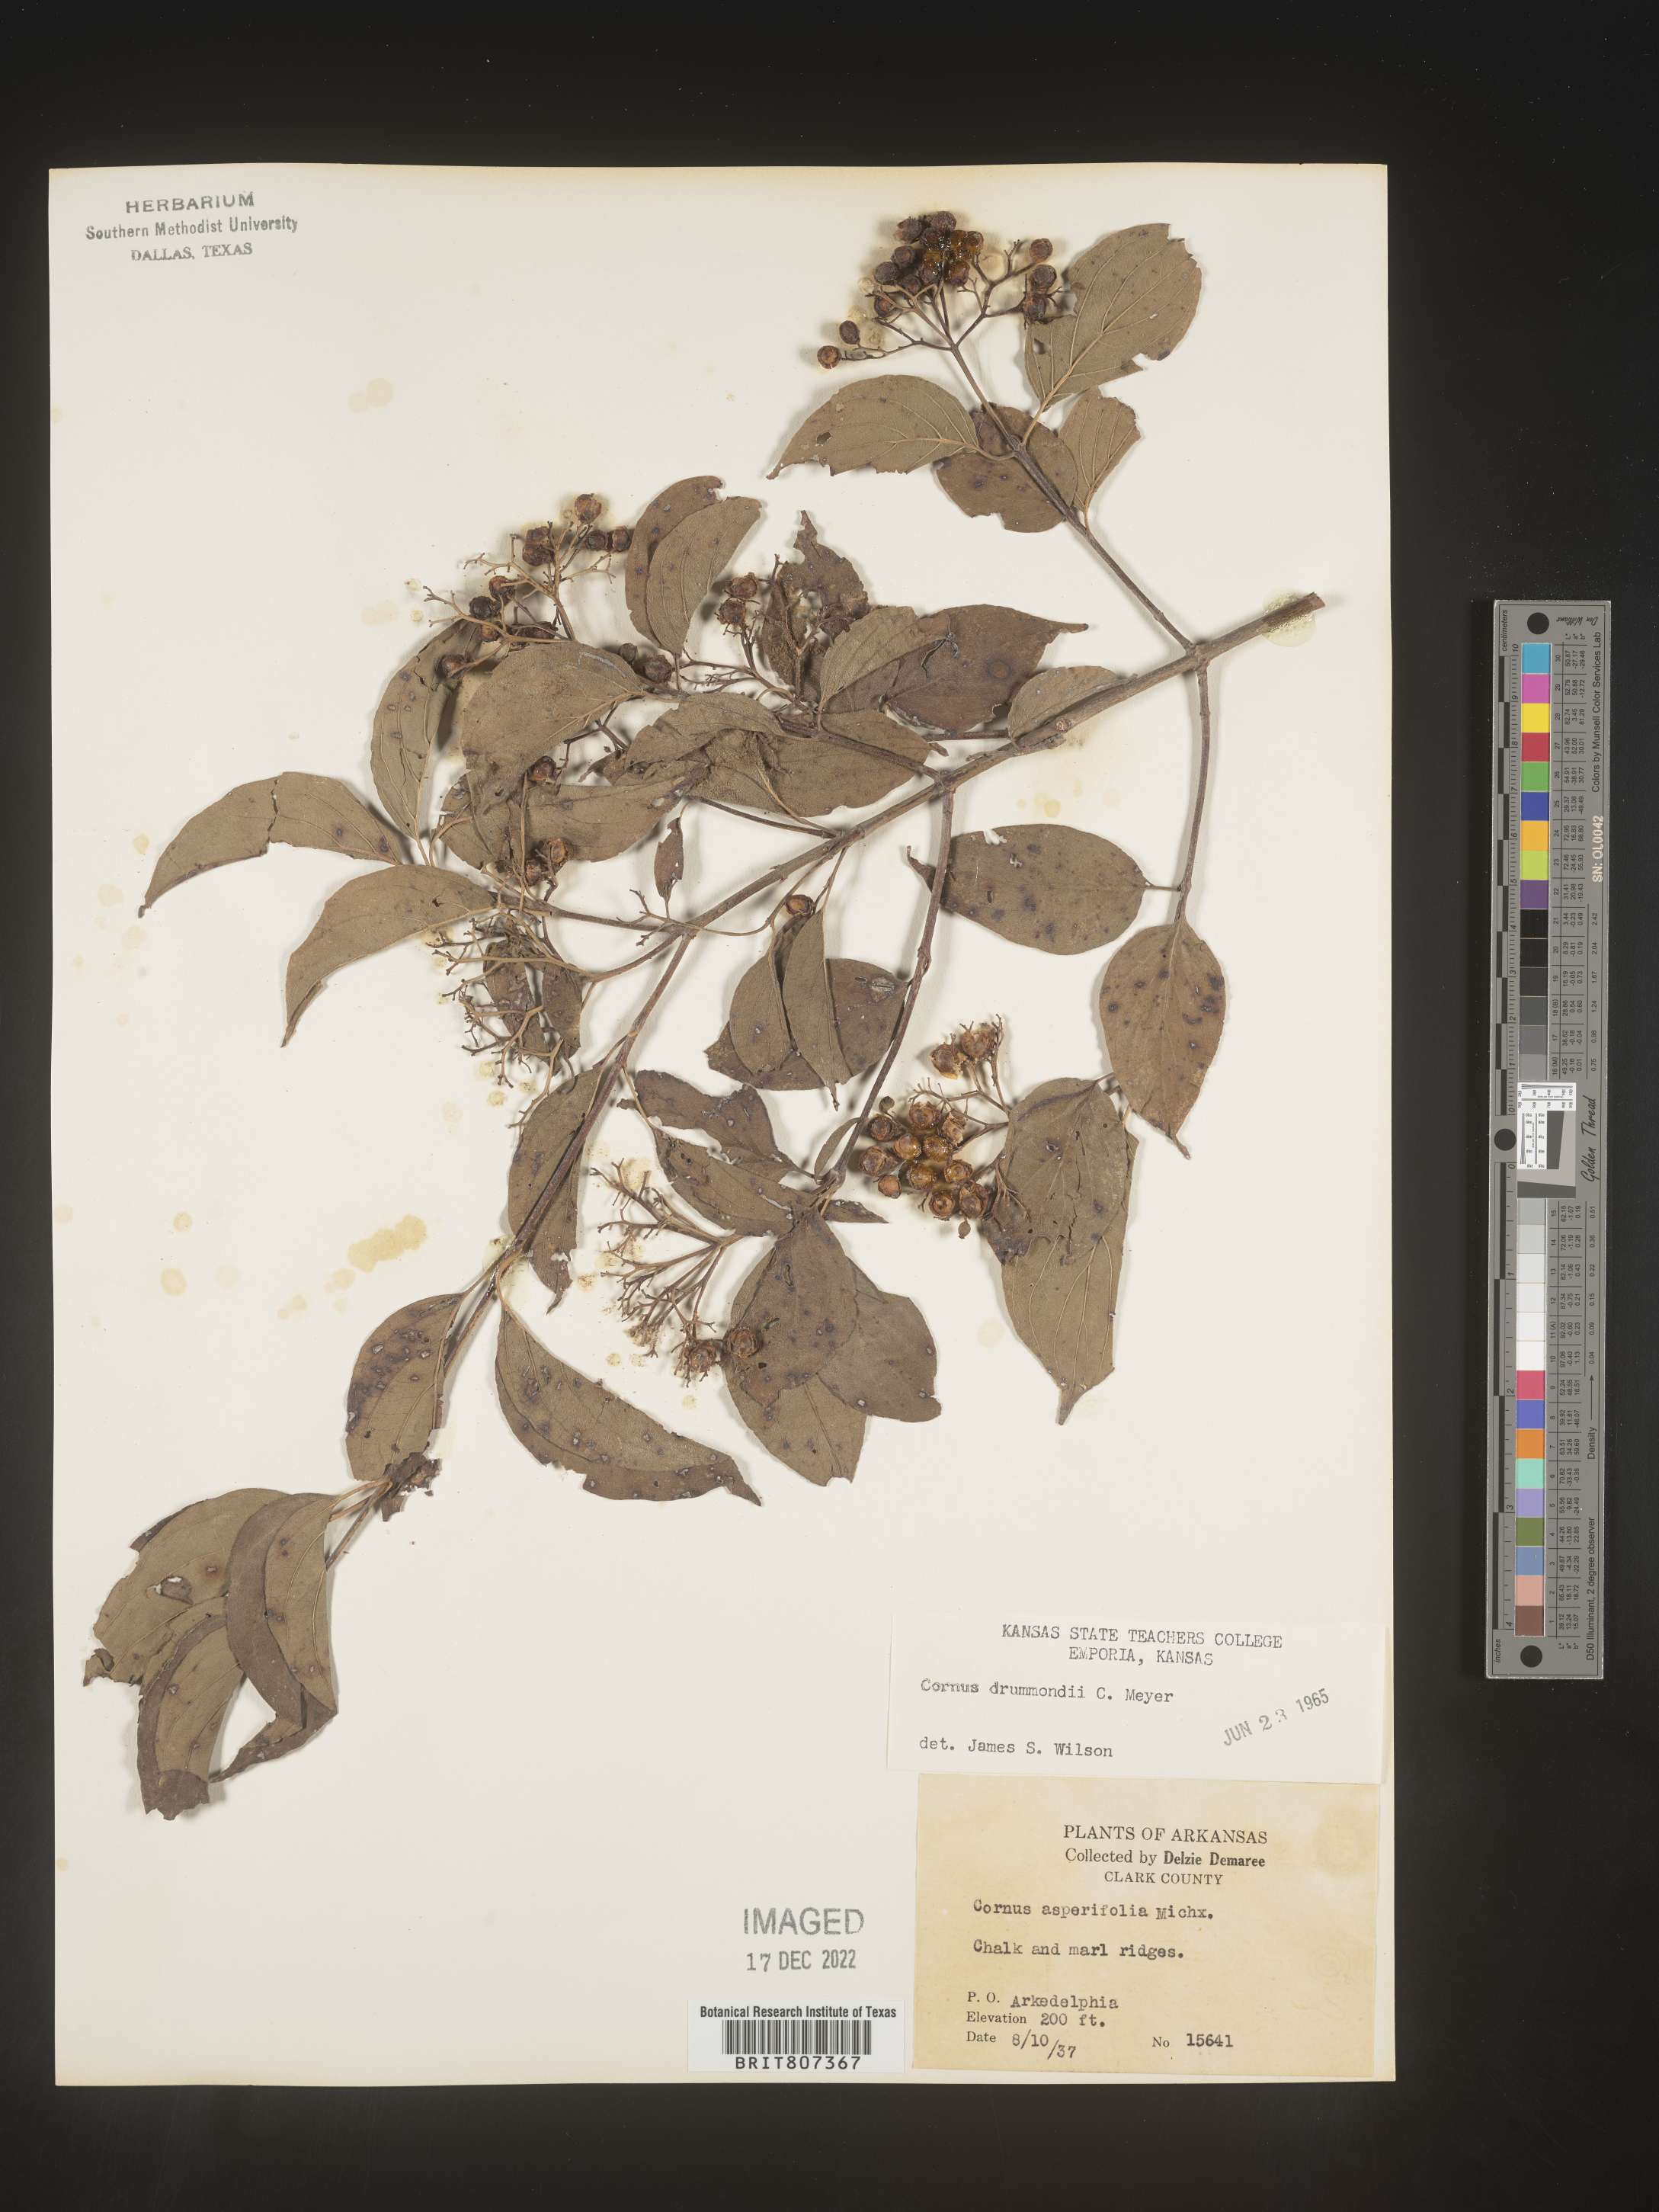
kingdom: Plantae
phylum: Tracheophyta
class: Magnoliopsida
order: Cornales
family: Cornaceae
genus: Cornus
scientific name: Cornus drummondii
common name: Rough-leaf dogwood
